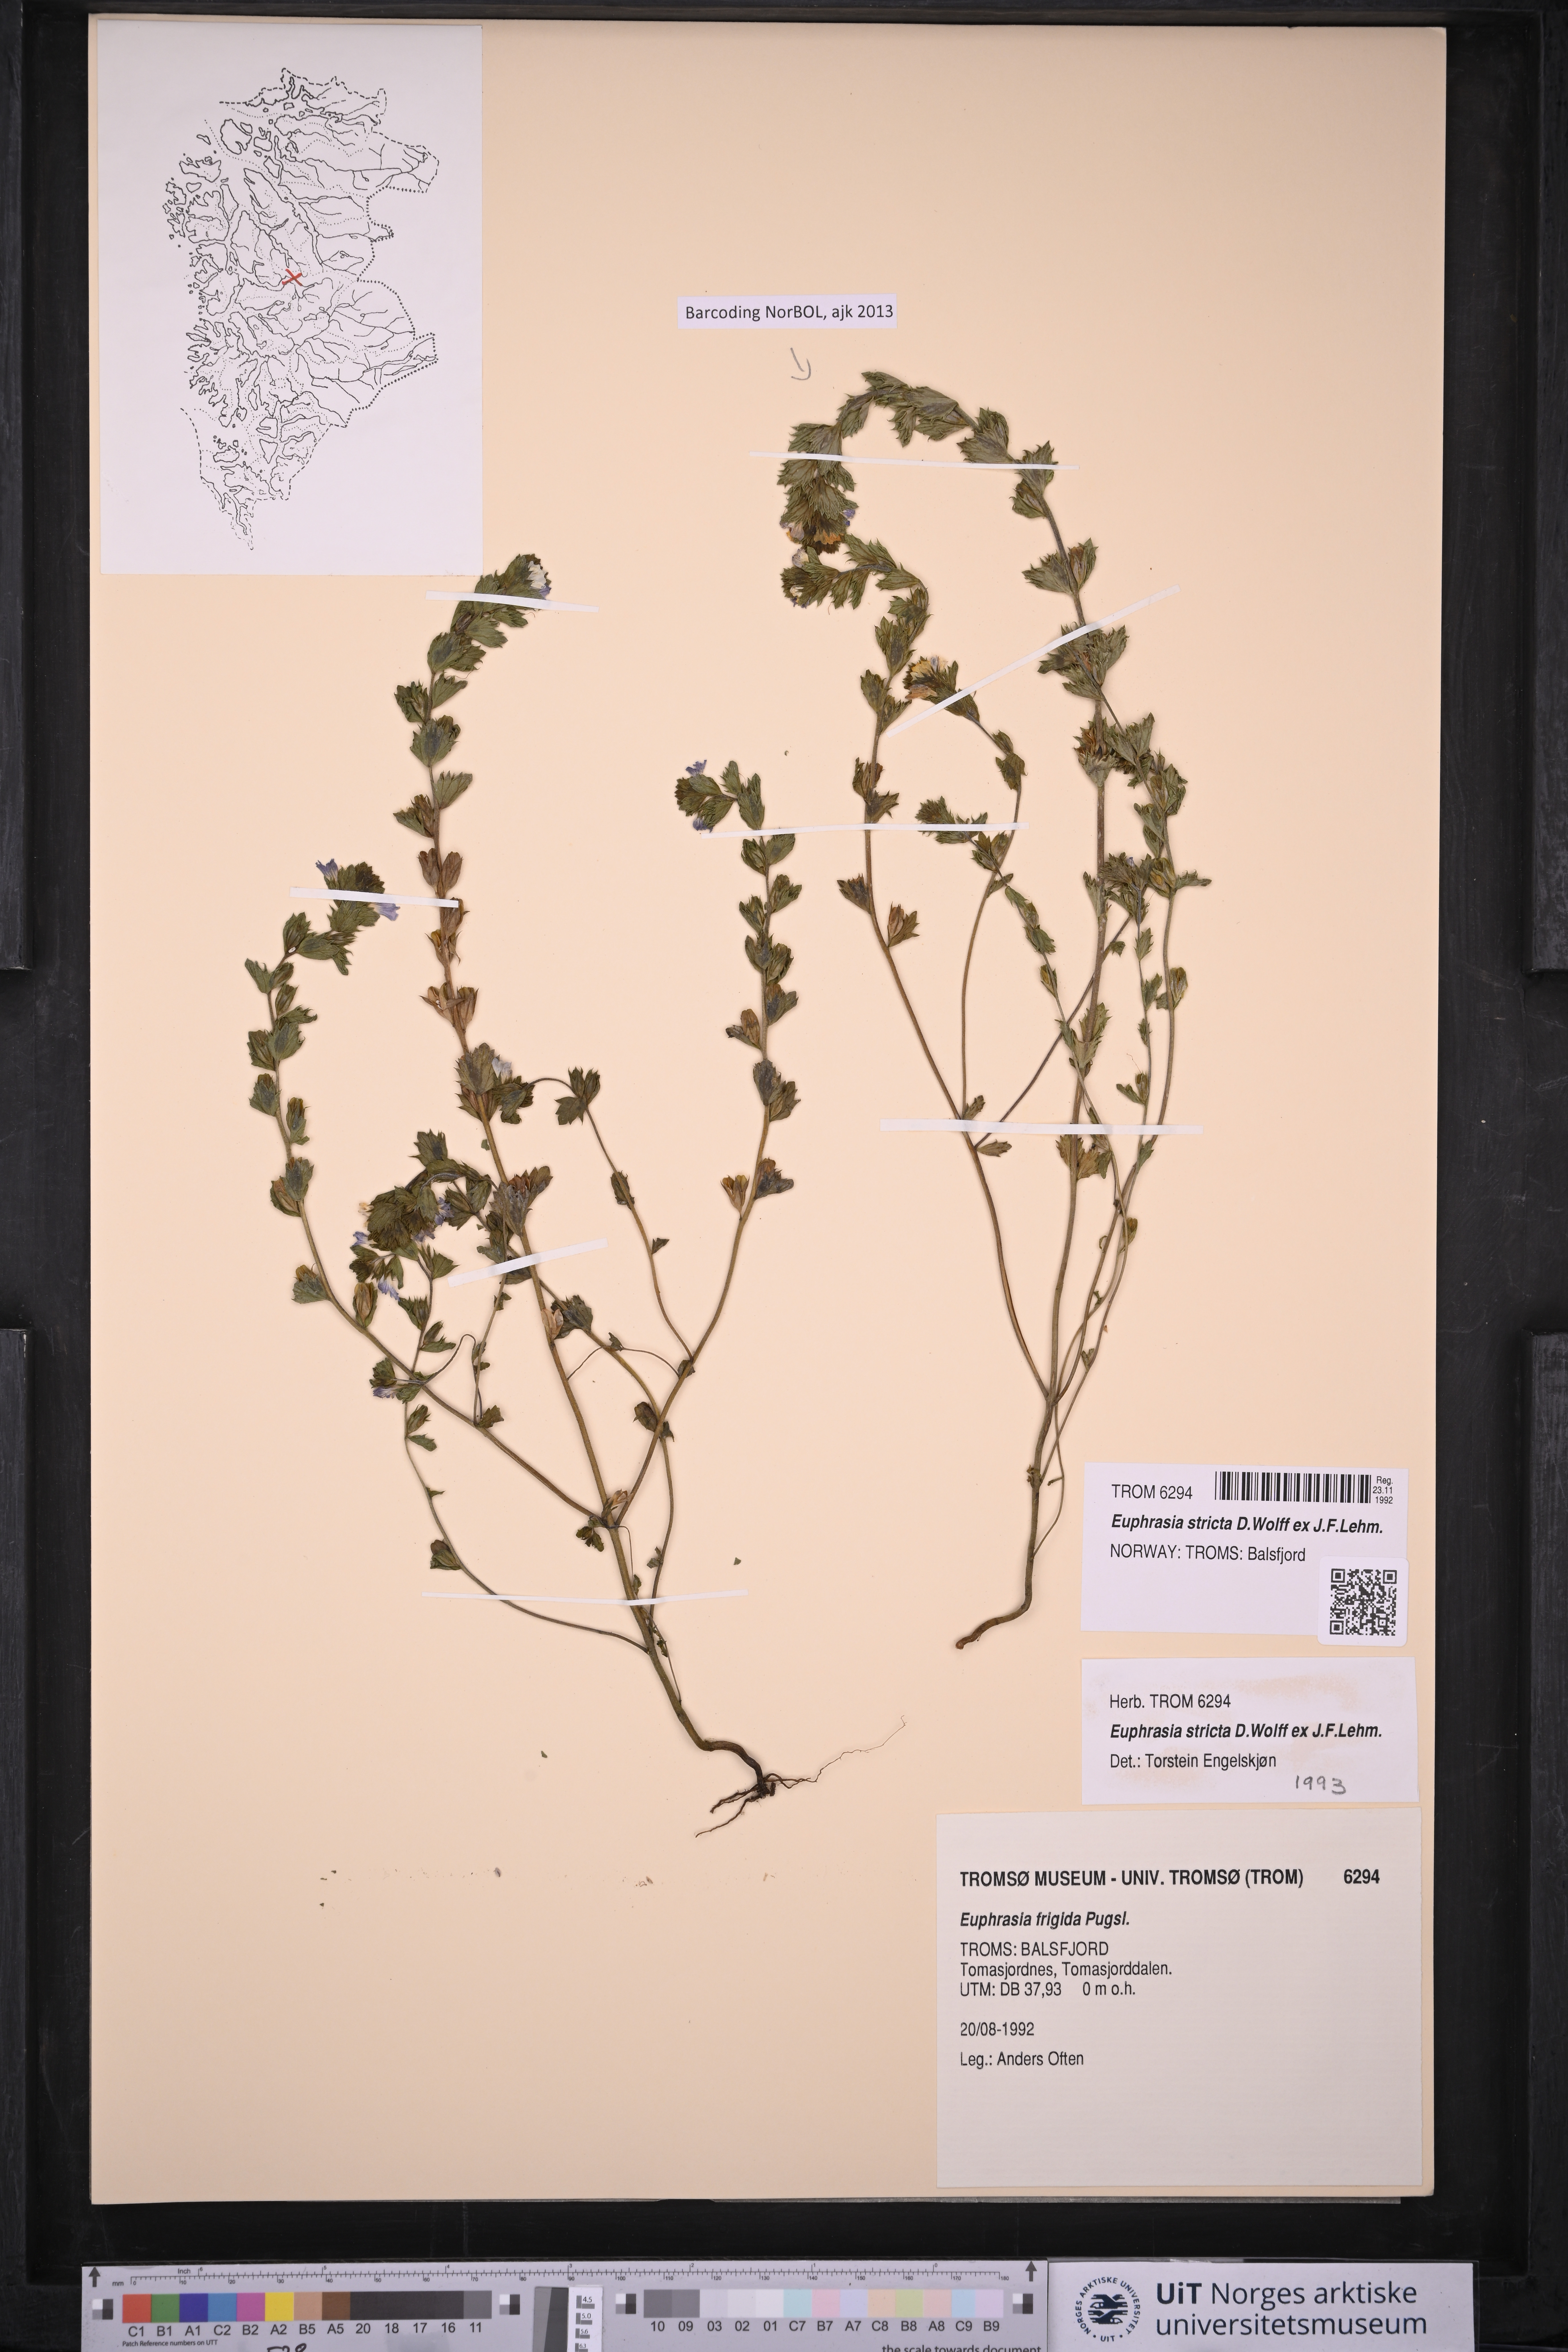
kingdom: Plantae
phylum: Tracheophyta
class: Magnoliopsida
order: Lamiales
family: Orobanchaceae
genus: Euphrasia
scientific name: Euphrasia stricta
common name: Drug eyebright
